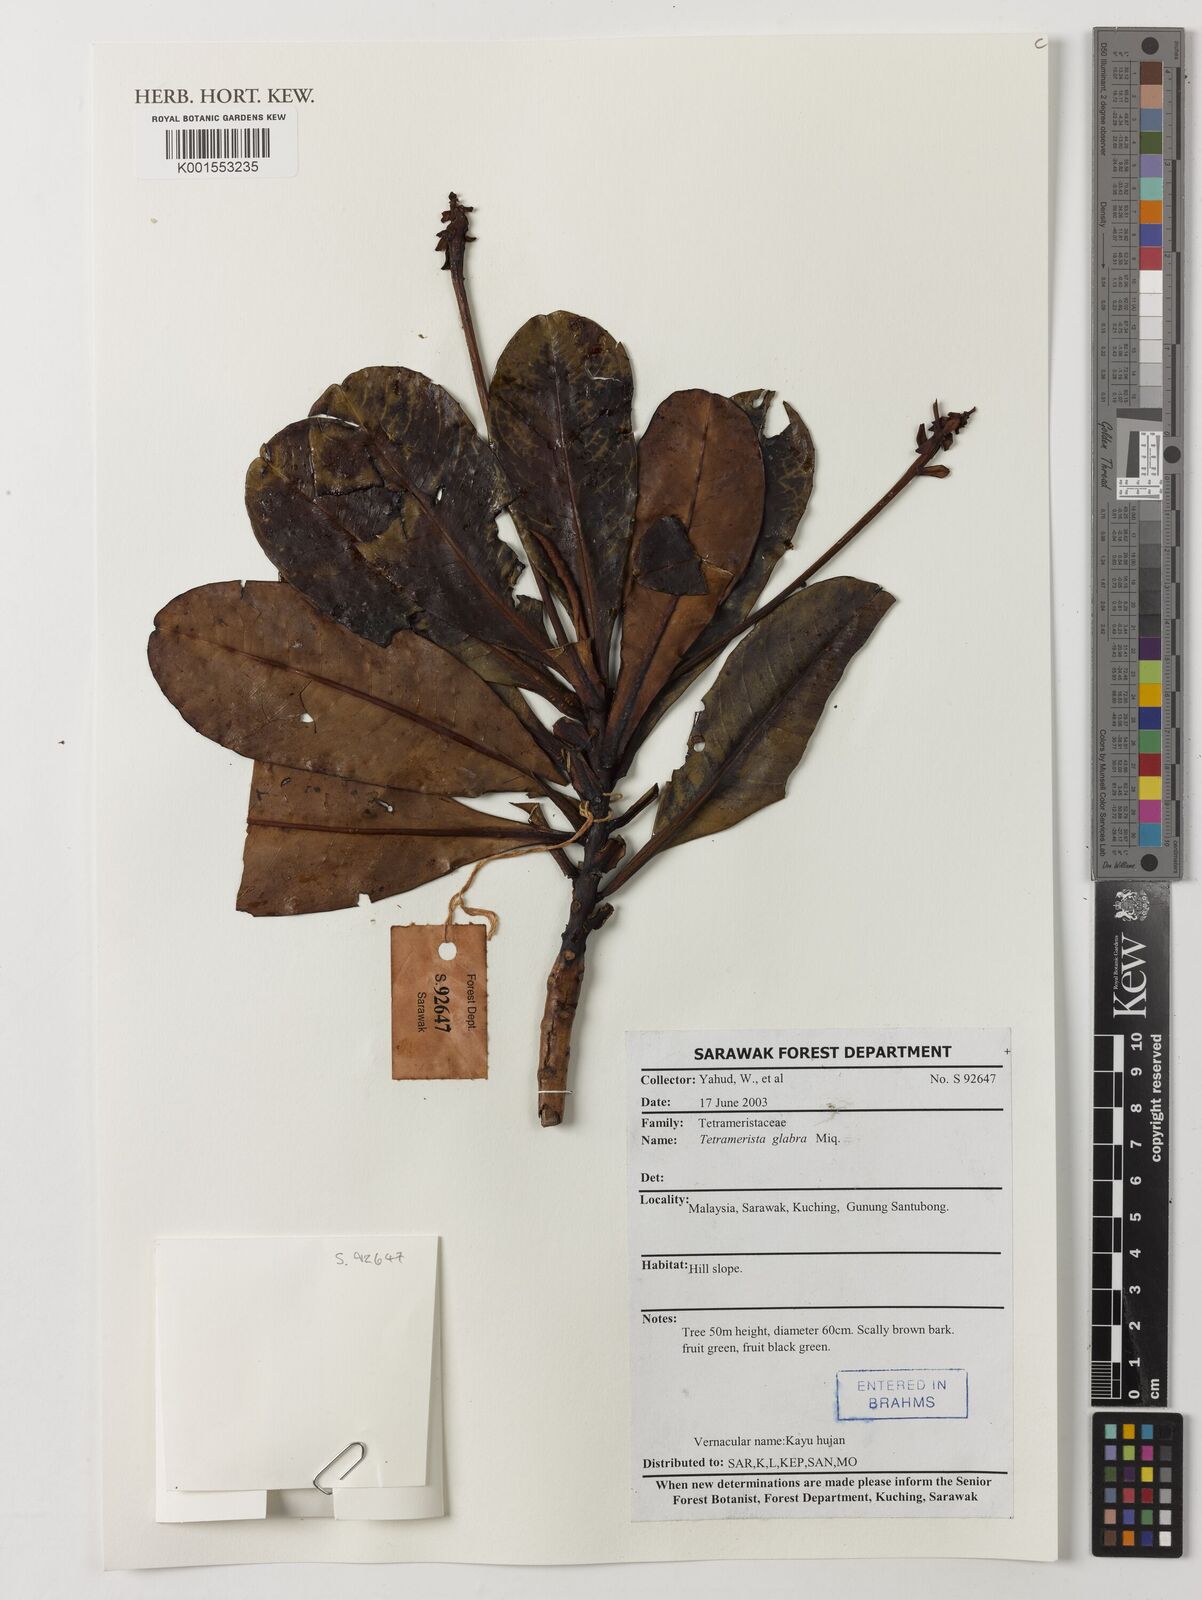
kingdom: Plantae
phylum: Tracheophyta
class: Magnoliopsida
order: Ericales
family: Tetrameristaceae
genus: Tetramerista
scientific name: Tetramerista glabra
